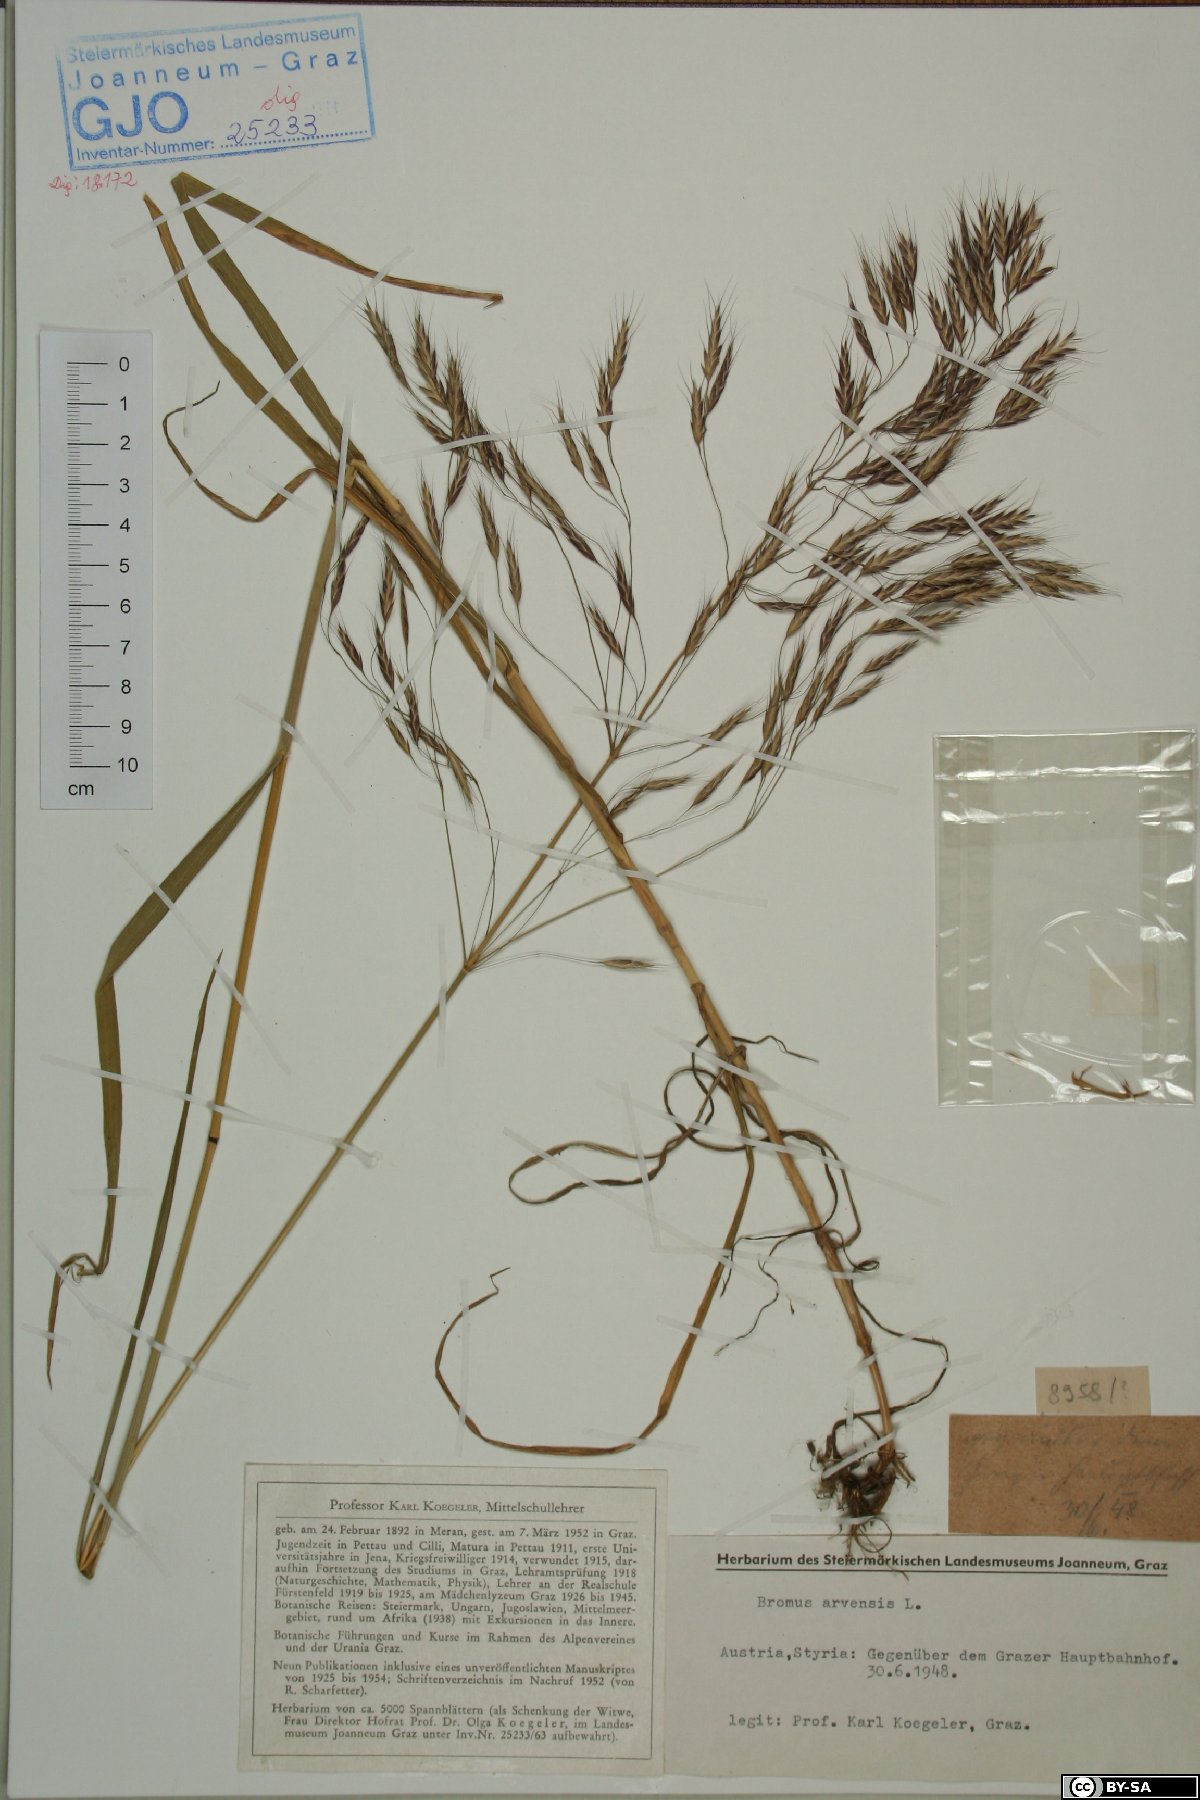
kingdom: Plantae
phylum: Tracheophyta
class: Liliopsida
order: Poales
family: Poaceae
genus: Bromus
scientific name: Bromus arvensis
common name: Field brome
